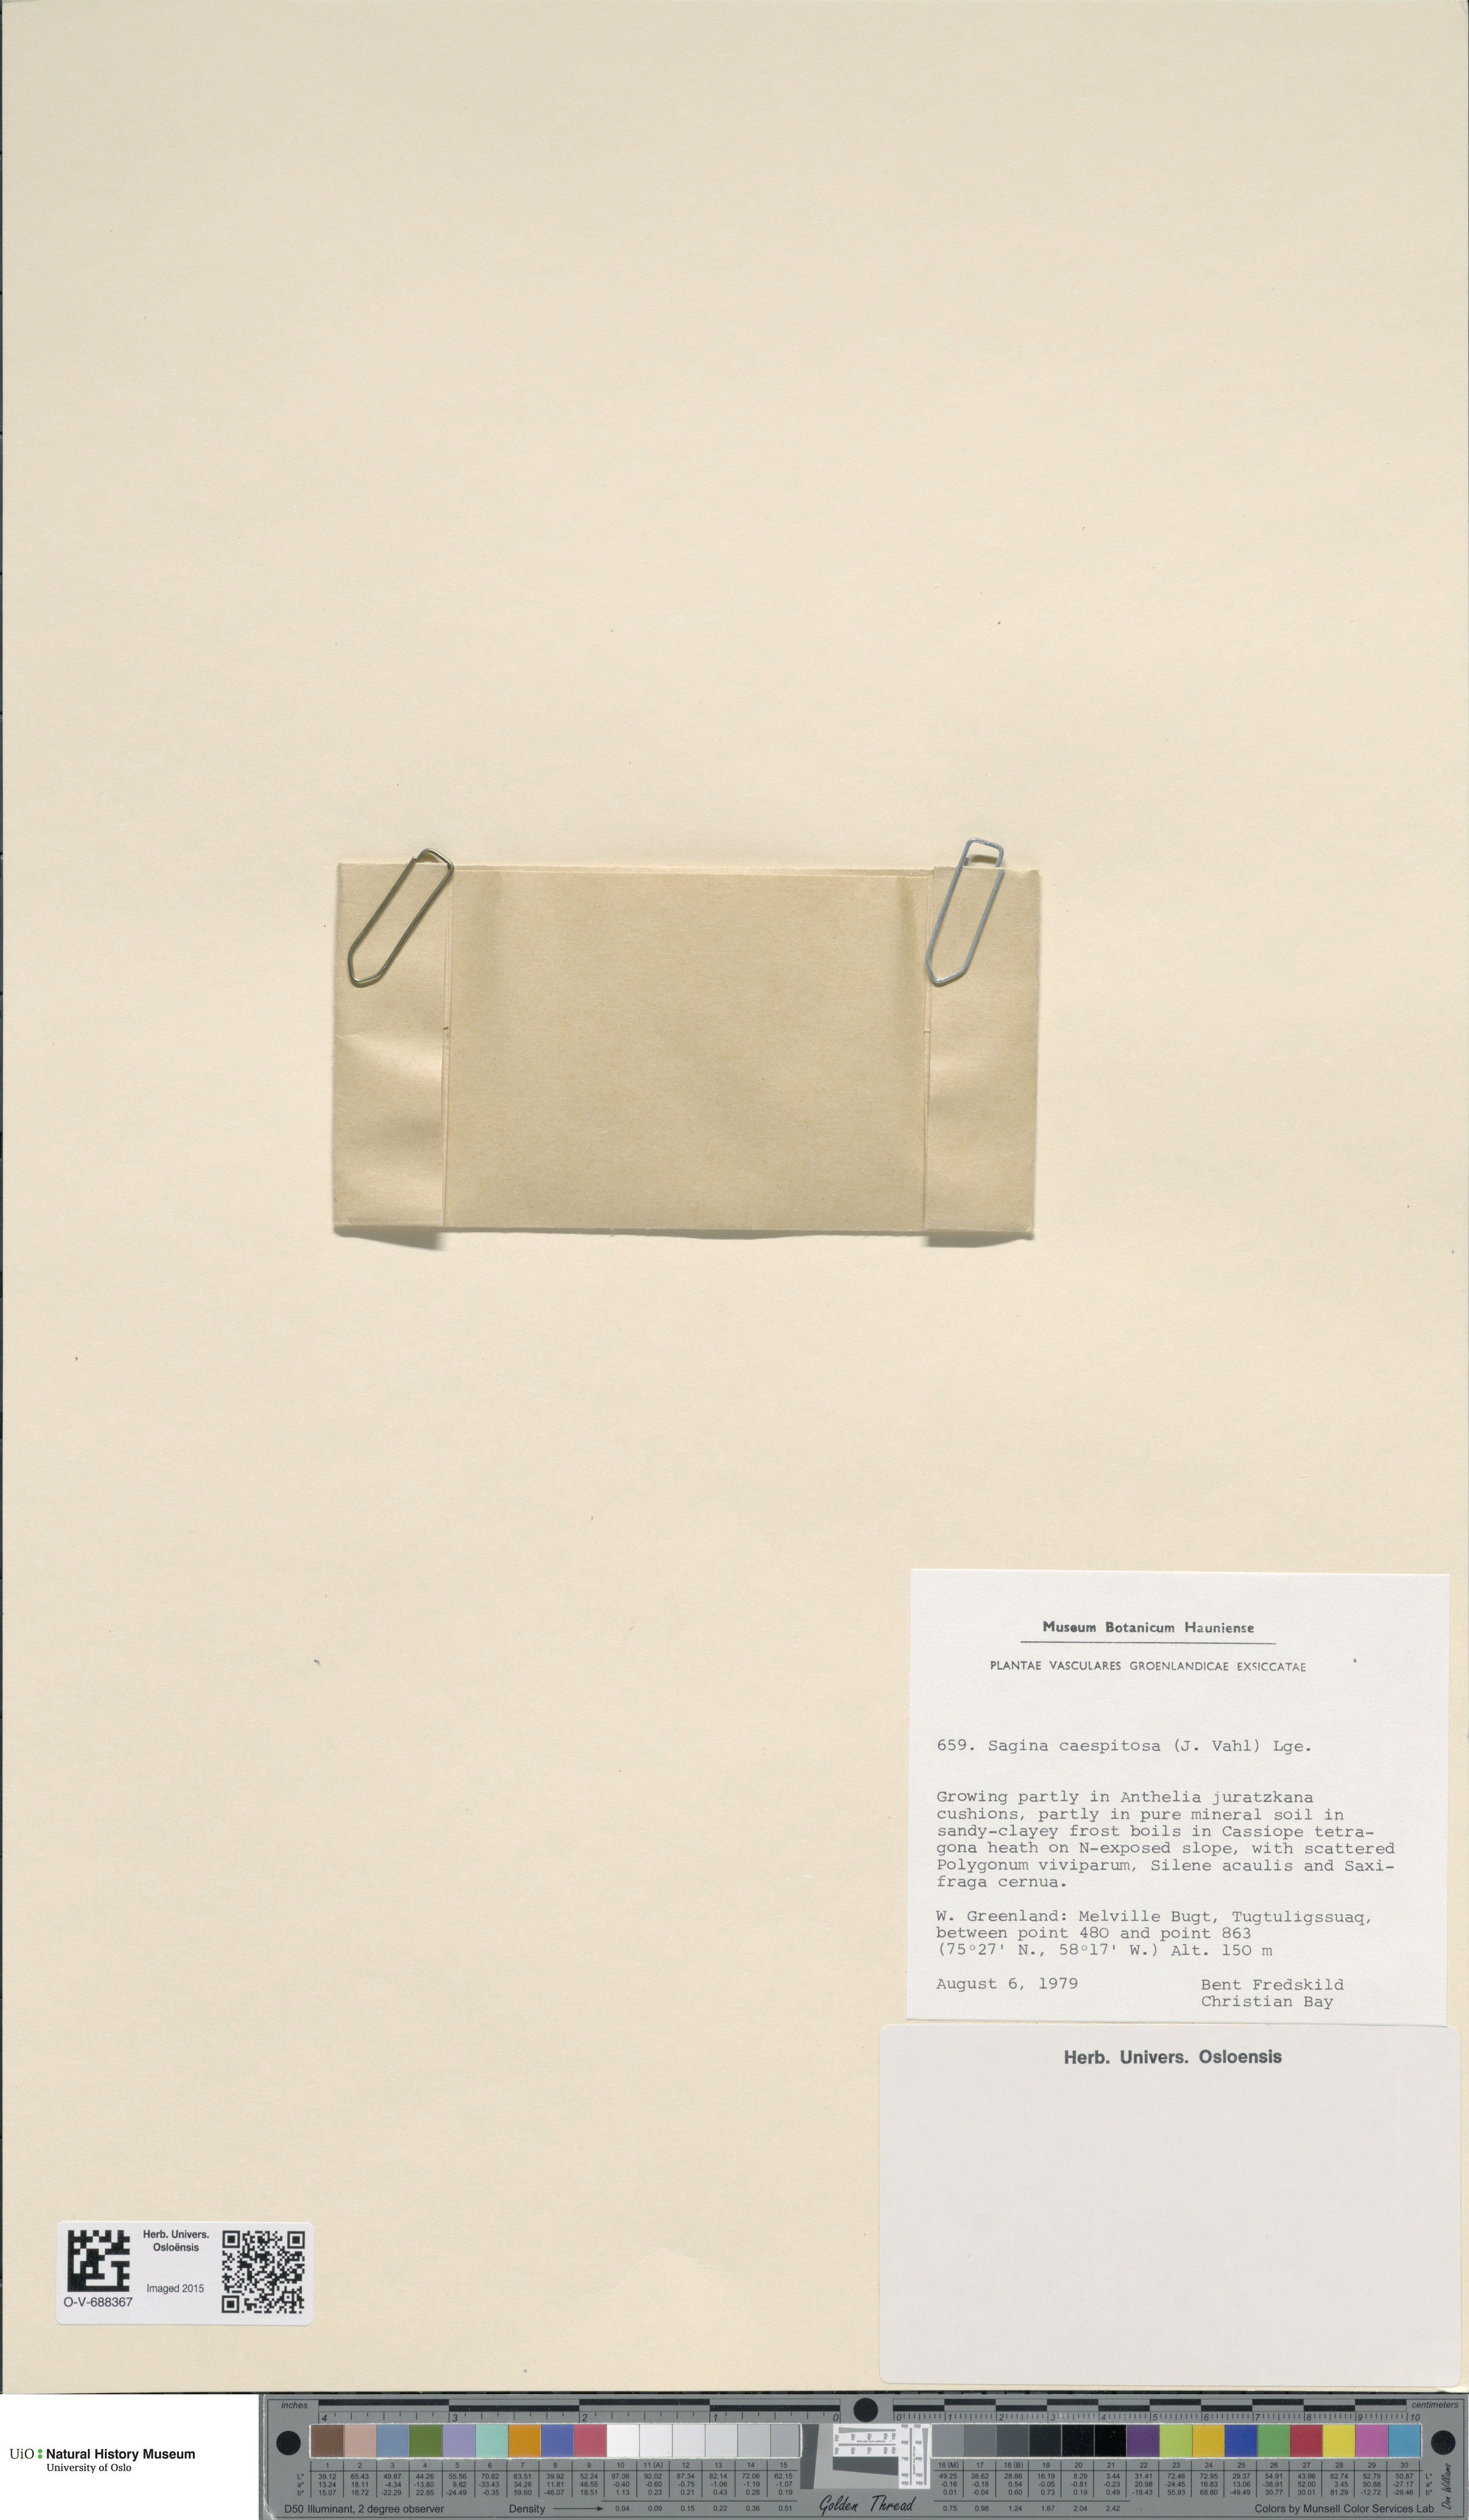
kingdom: Plantae
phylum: Tracheophyta
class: Magnoliopsida
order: Caryophyllales
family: Caryophyllaceae
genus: Sagina
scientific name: Sagina caespitosa
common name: Tufted pearlwort
